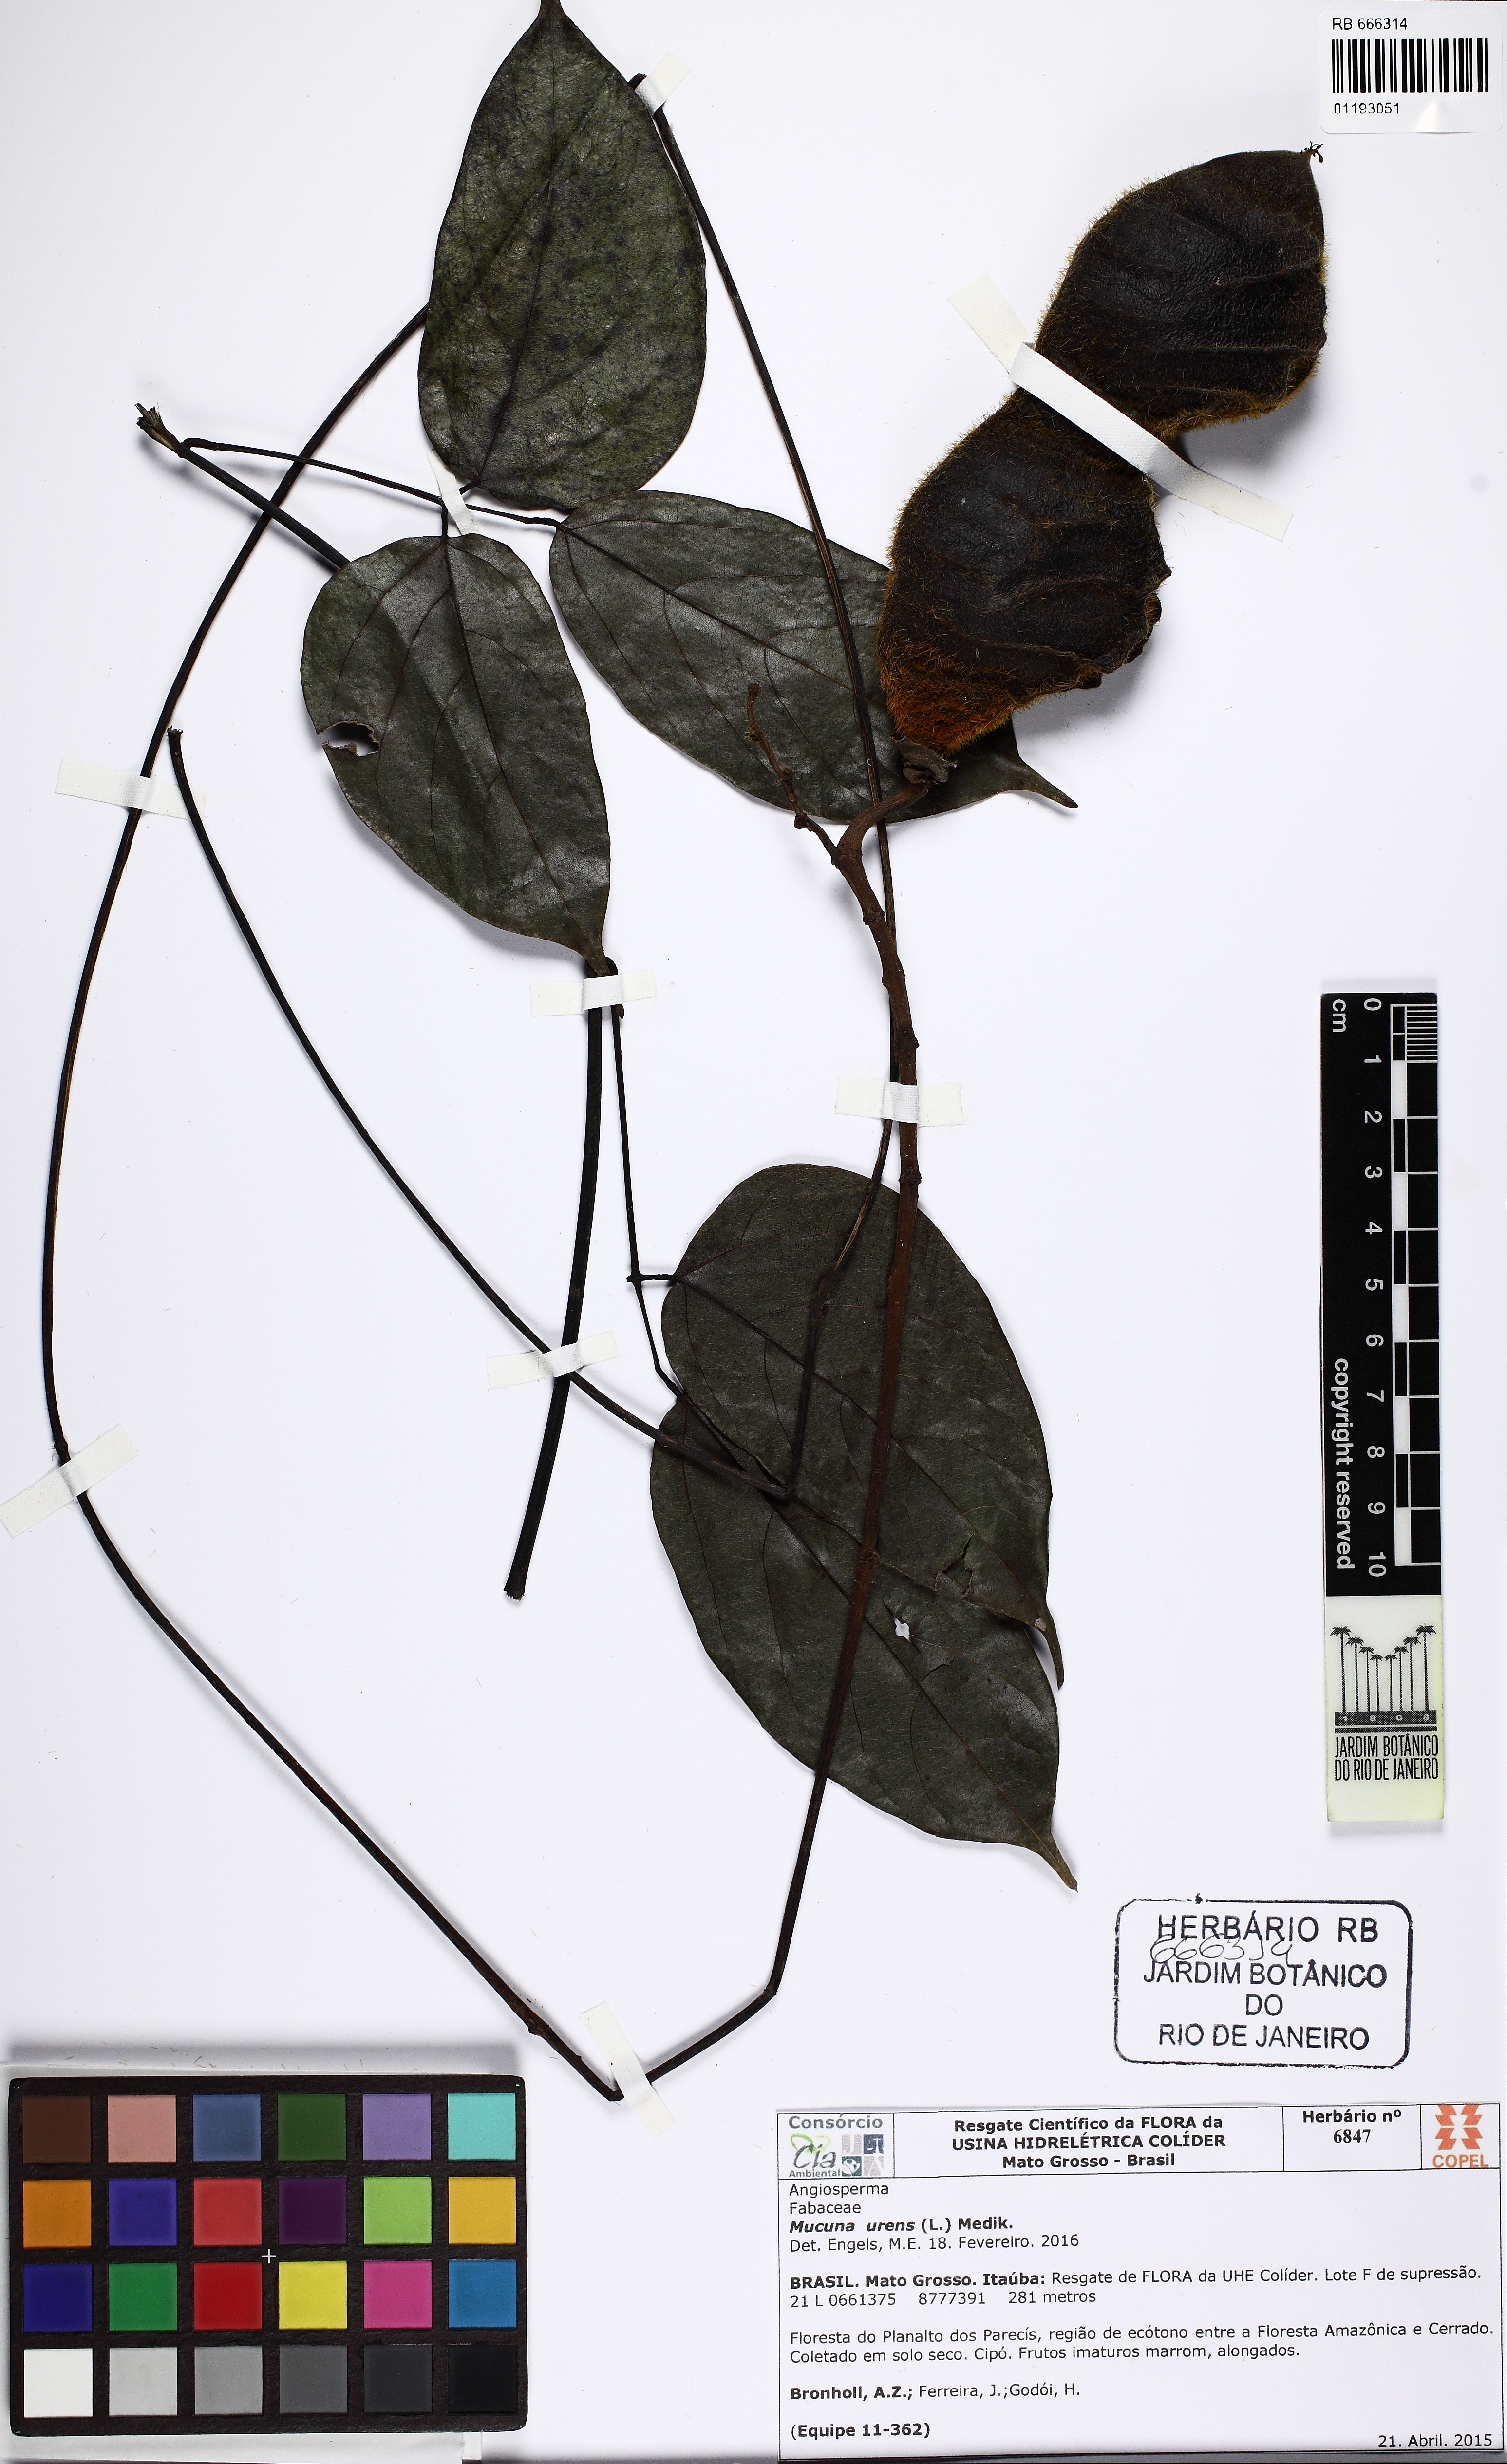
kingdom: Plantae
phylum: Tracheophyta
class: Magnoliopsida
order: Fabales
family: Fabaceae
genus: Mucuna
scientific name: Mucuna urens
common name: Red hamburger bean
